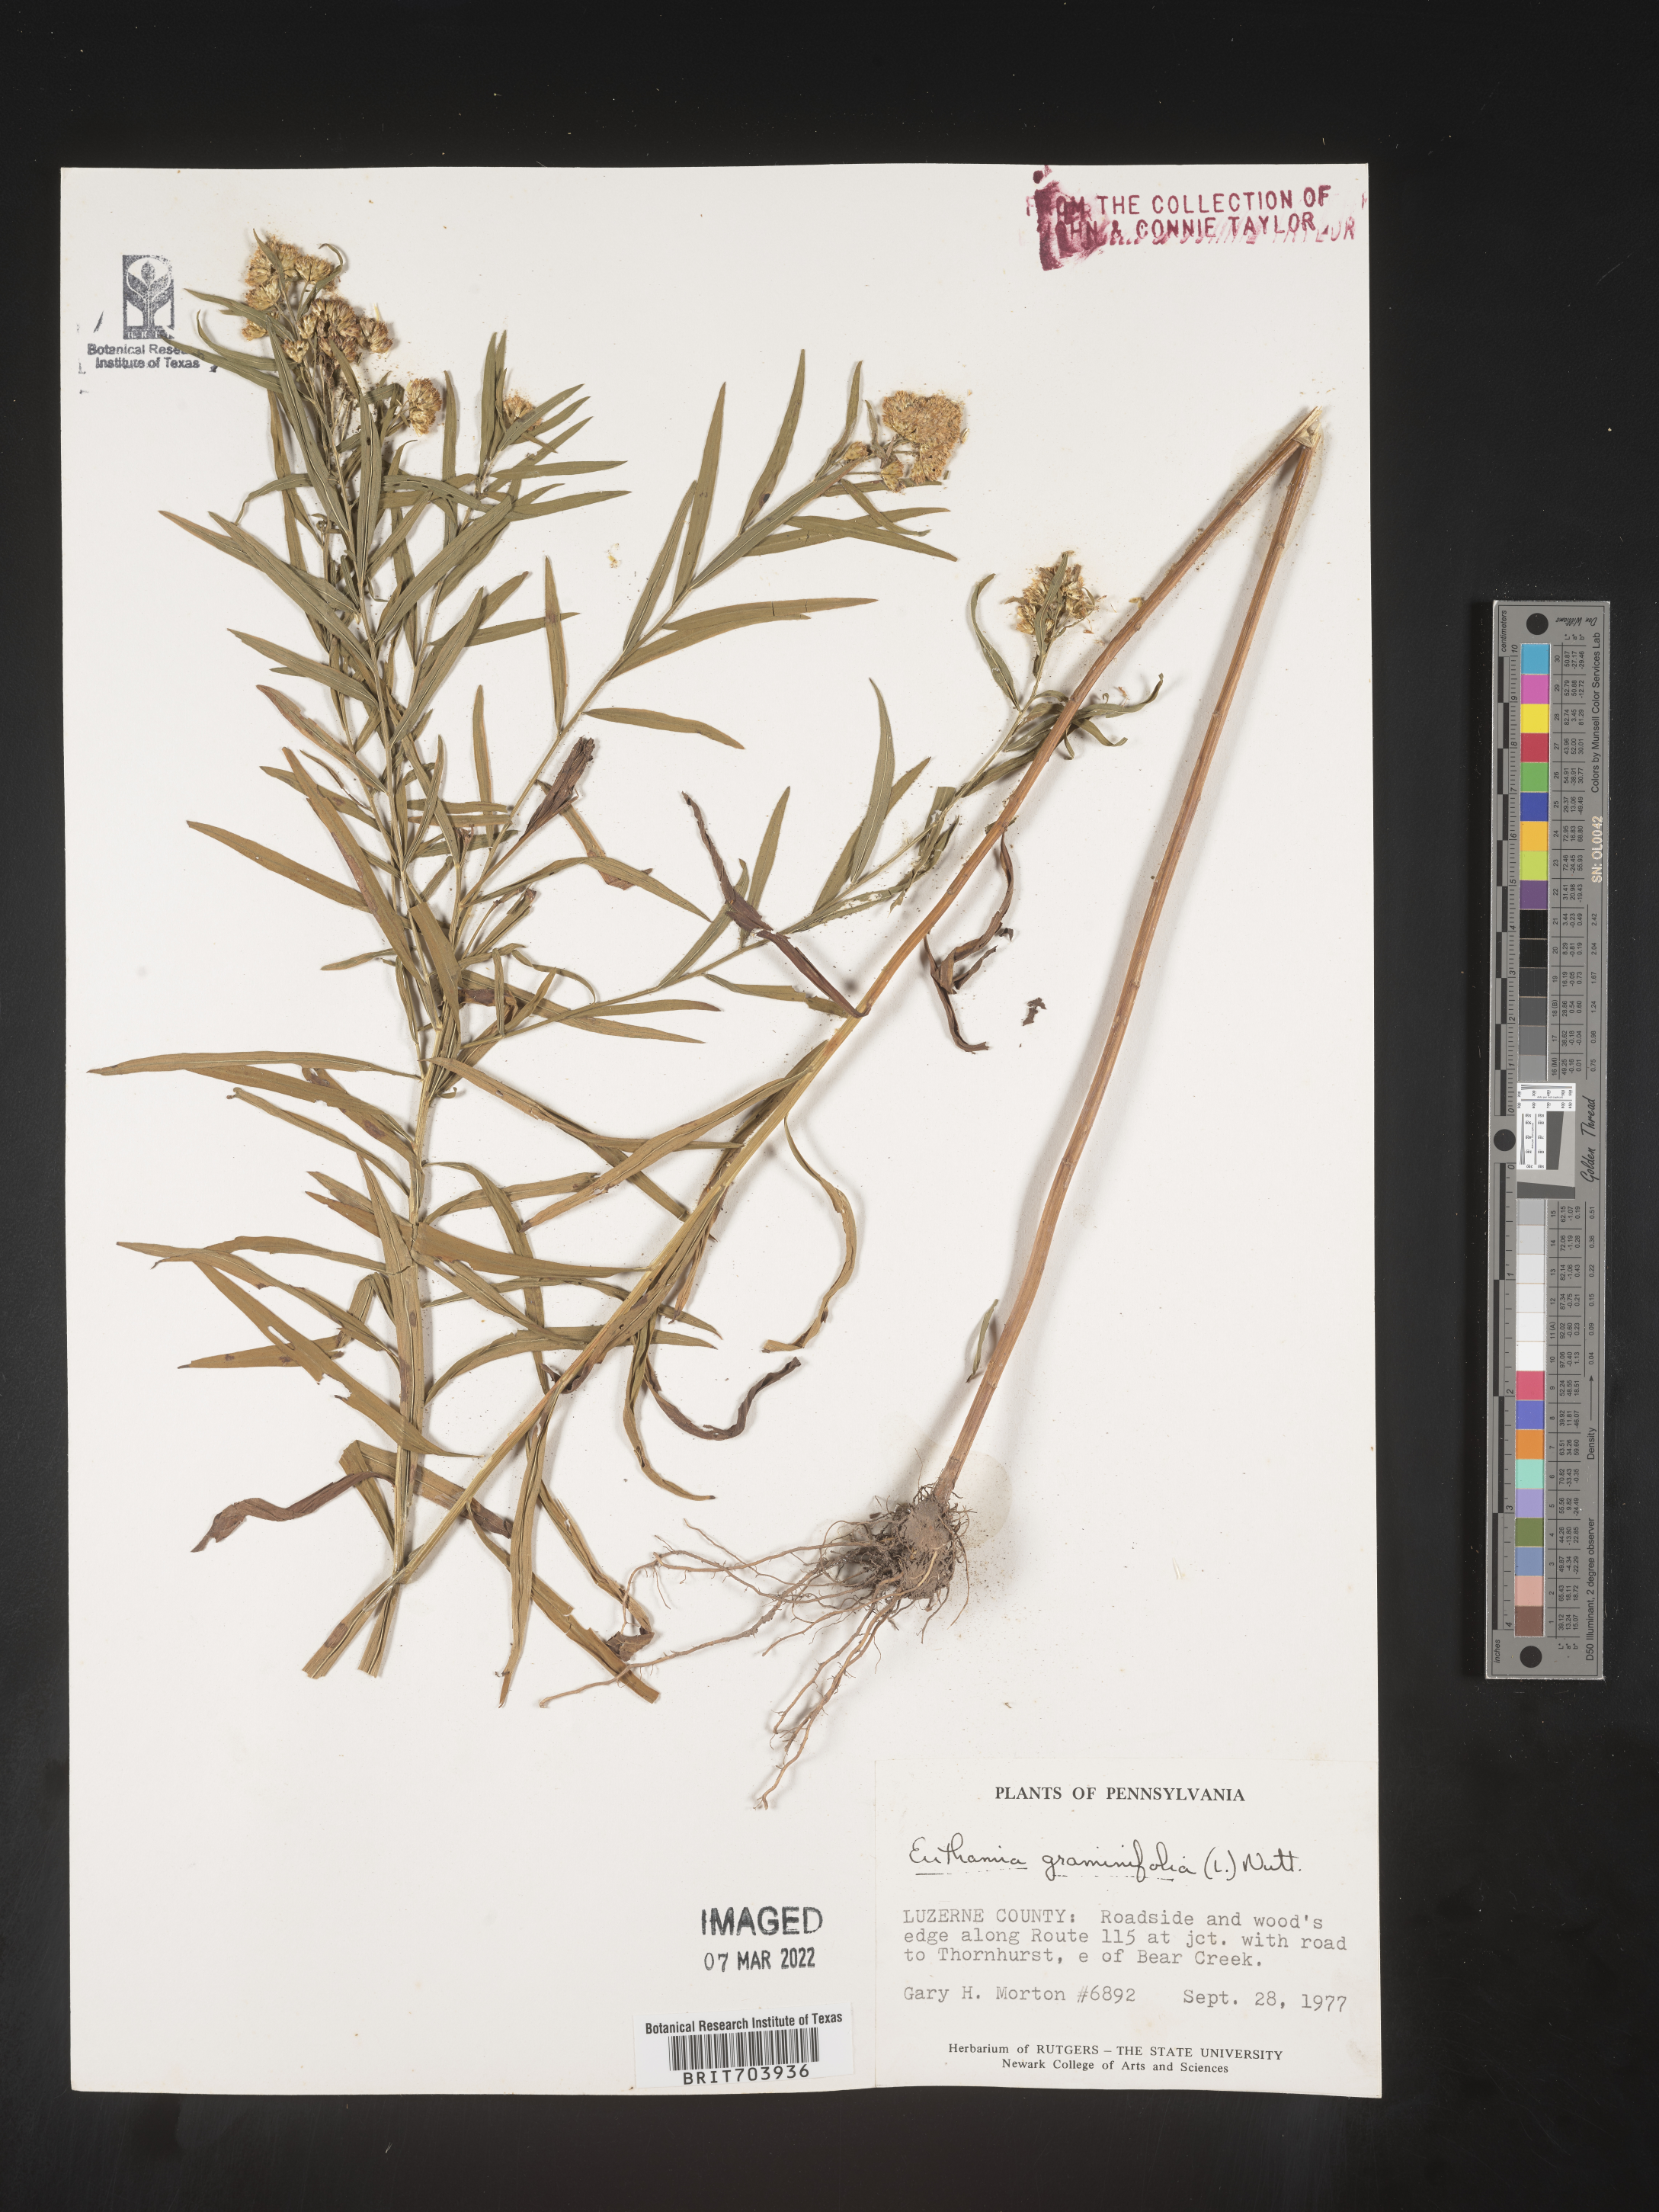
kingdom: Plantae
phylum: Tracheophyta
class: Magnoliopsida
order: Asterales
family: Asteraceae
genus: Euthamia
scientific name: Euthamia graminifolia
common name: Common goldentop
